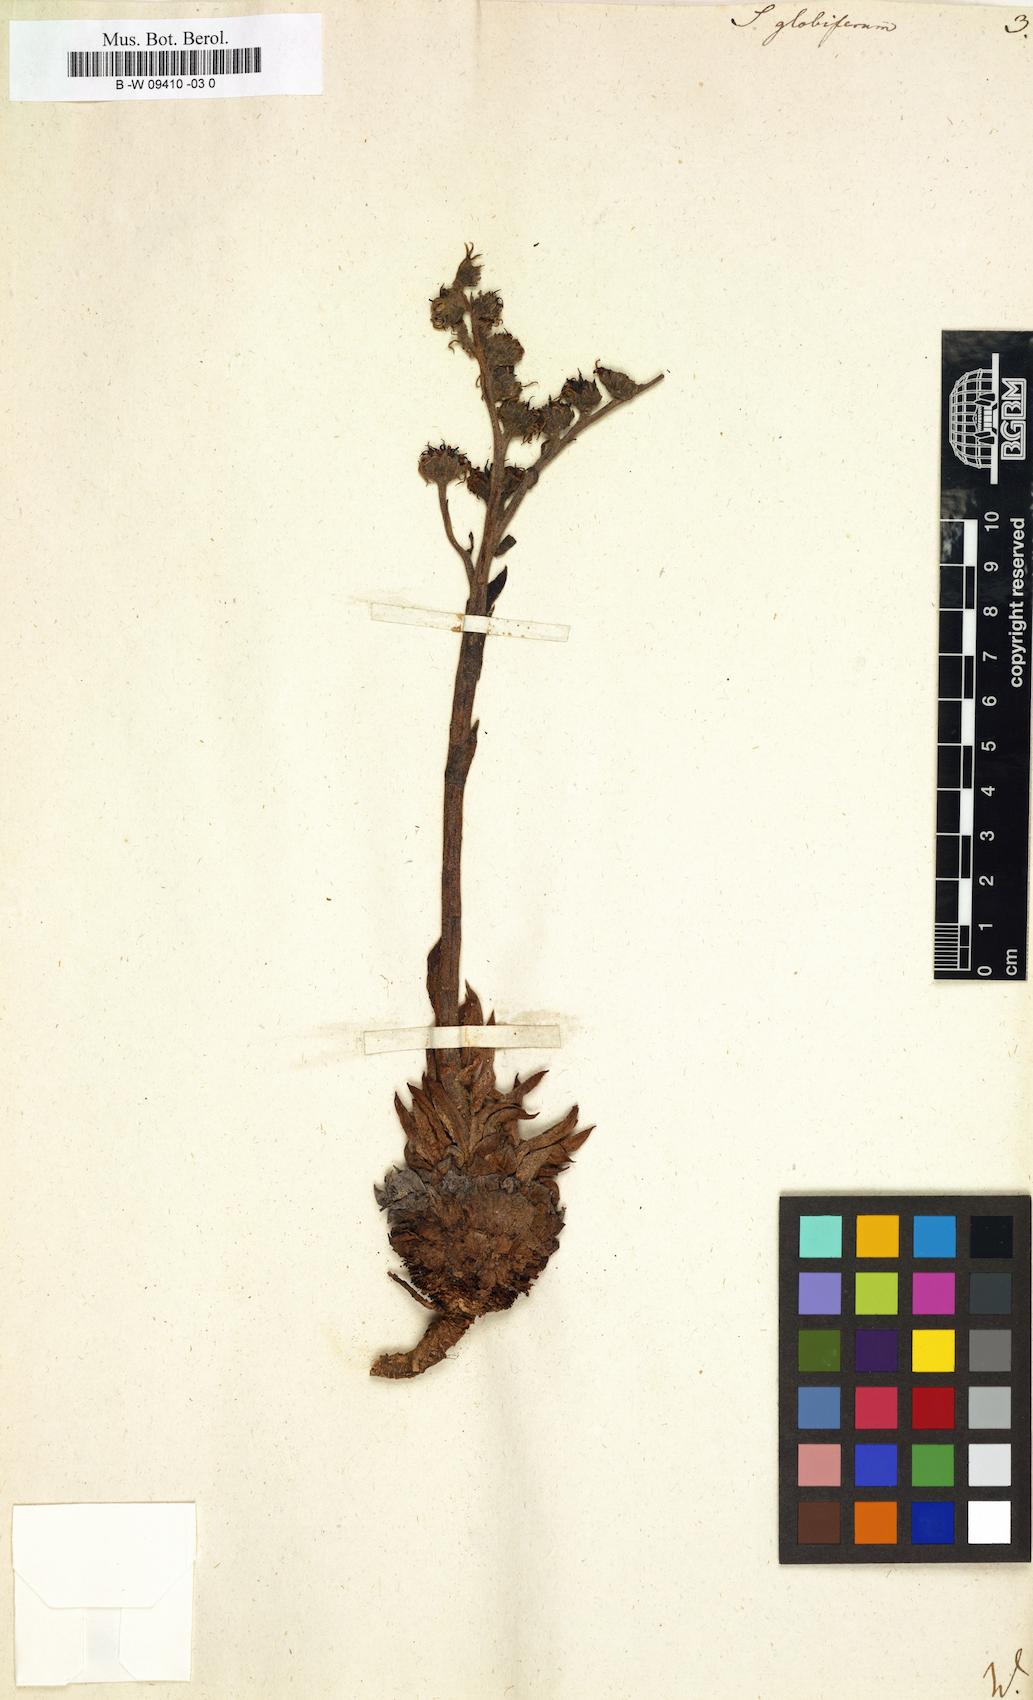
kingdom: Plantae
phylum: Tracheophyta
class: Magnoliopsida
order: Saxifragales
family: Crassulaceae
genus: Sempervivum
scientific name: Sempervivum globiferum
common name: Rolling hen-and-chicks
